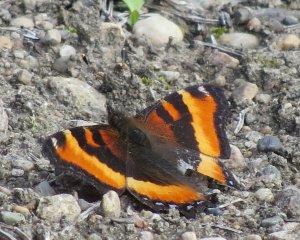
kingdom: Animalia
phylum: Arthropoda
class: Insecta
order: Lepidoptera
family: Nymphalidae
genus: Aglais
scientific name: Aglais milberti
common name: Milbert's Tortoiseshell
